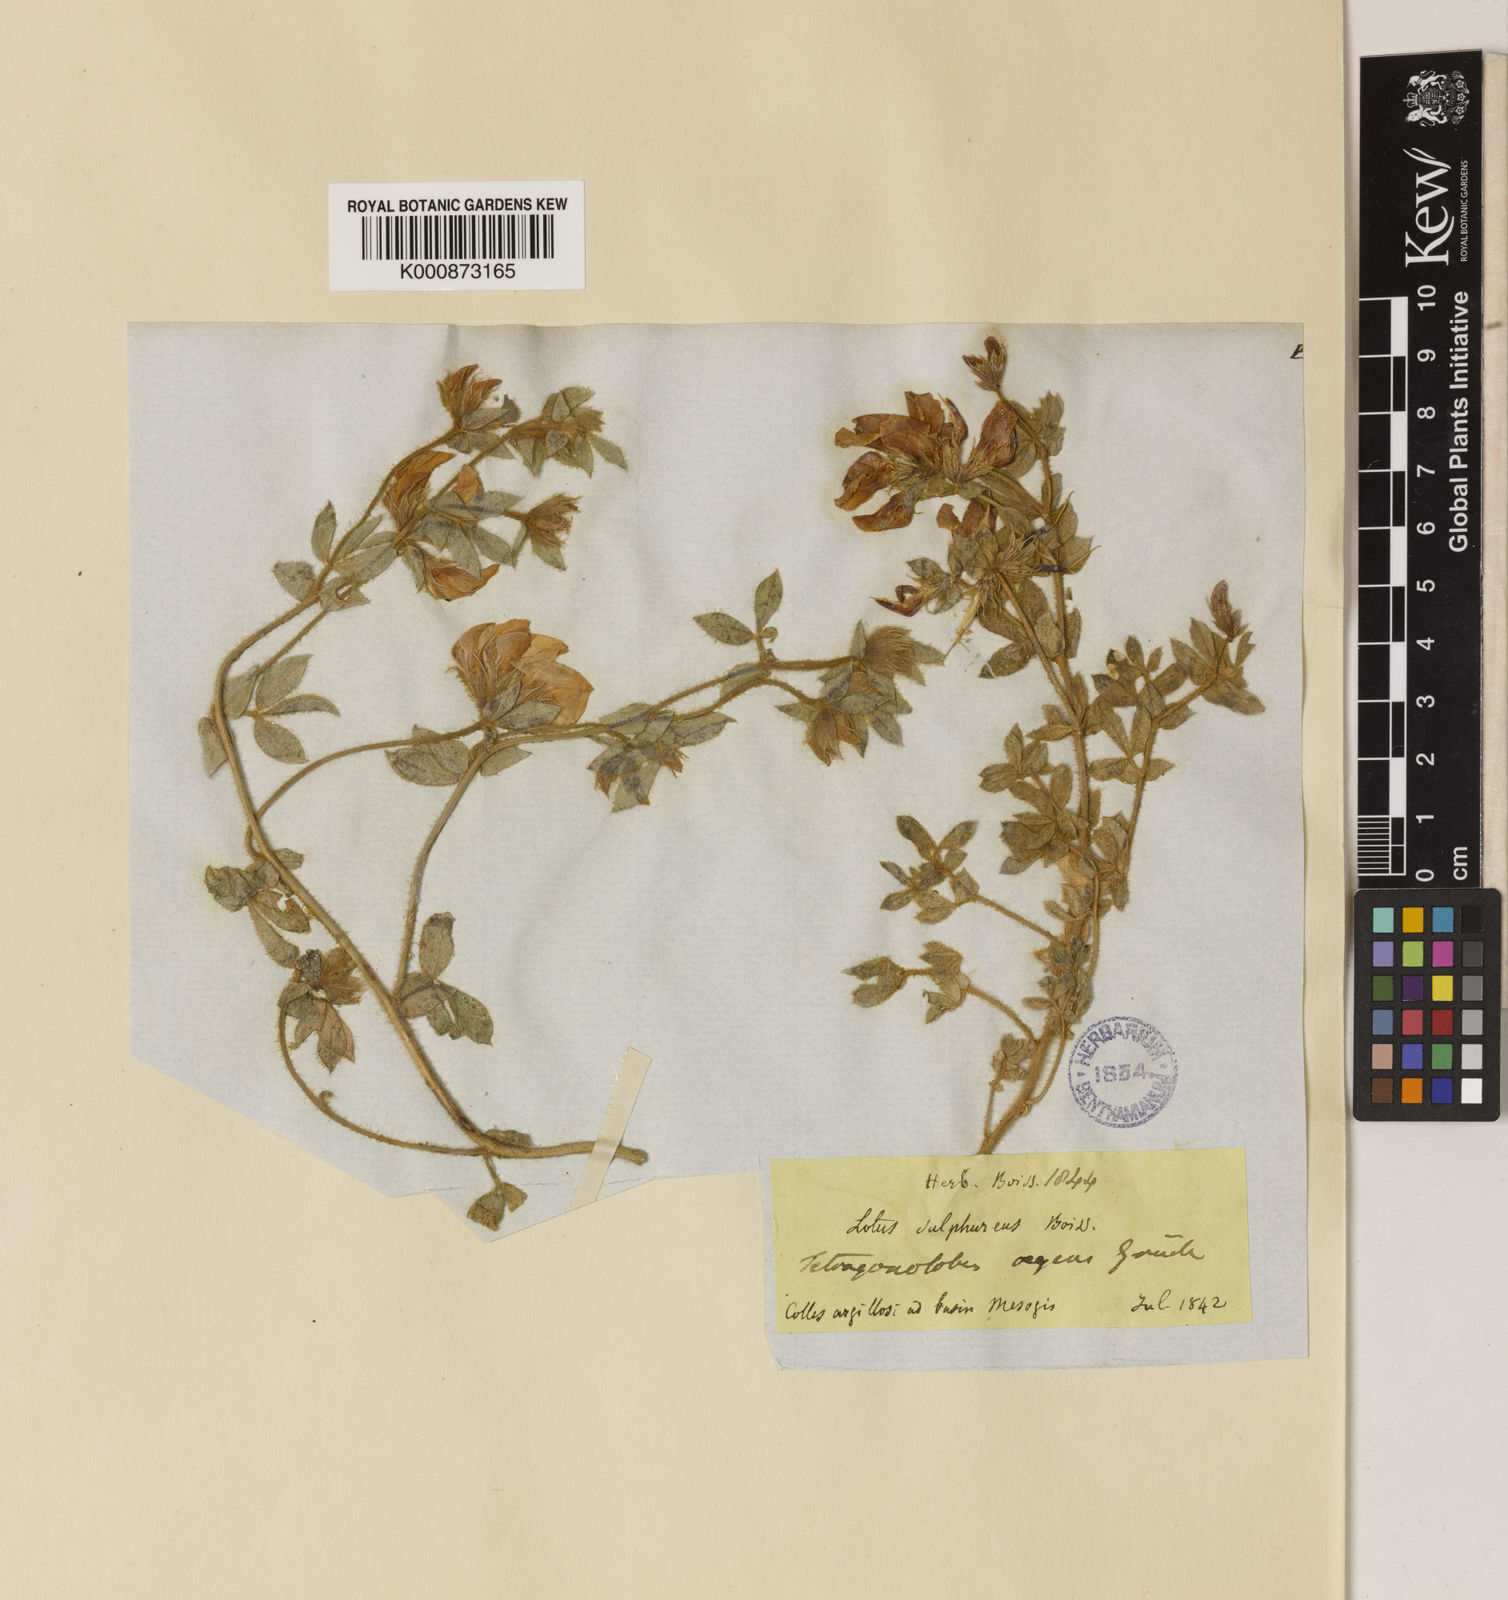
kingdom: Plantae
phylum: Tracheophyta
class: Magnoliopsida
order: Fabales
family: Fabaceae
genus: Lotus
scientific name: Lotus
